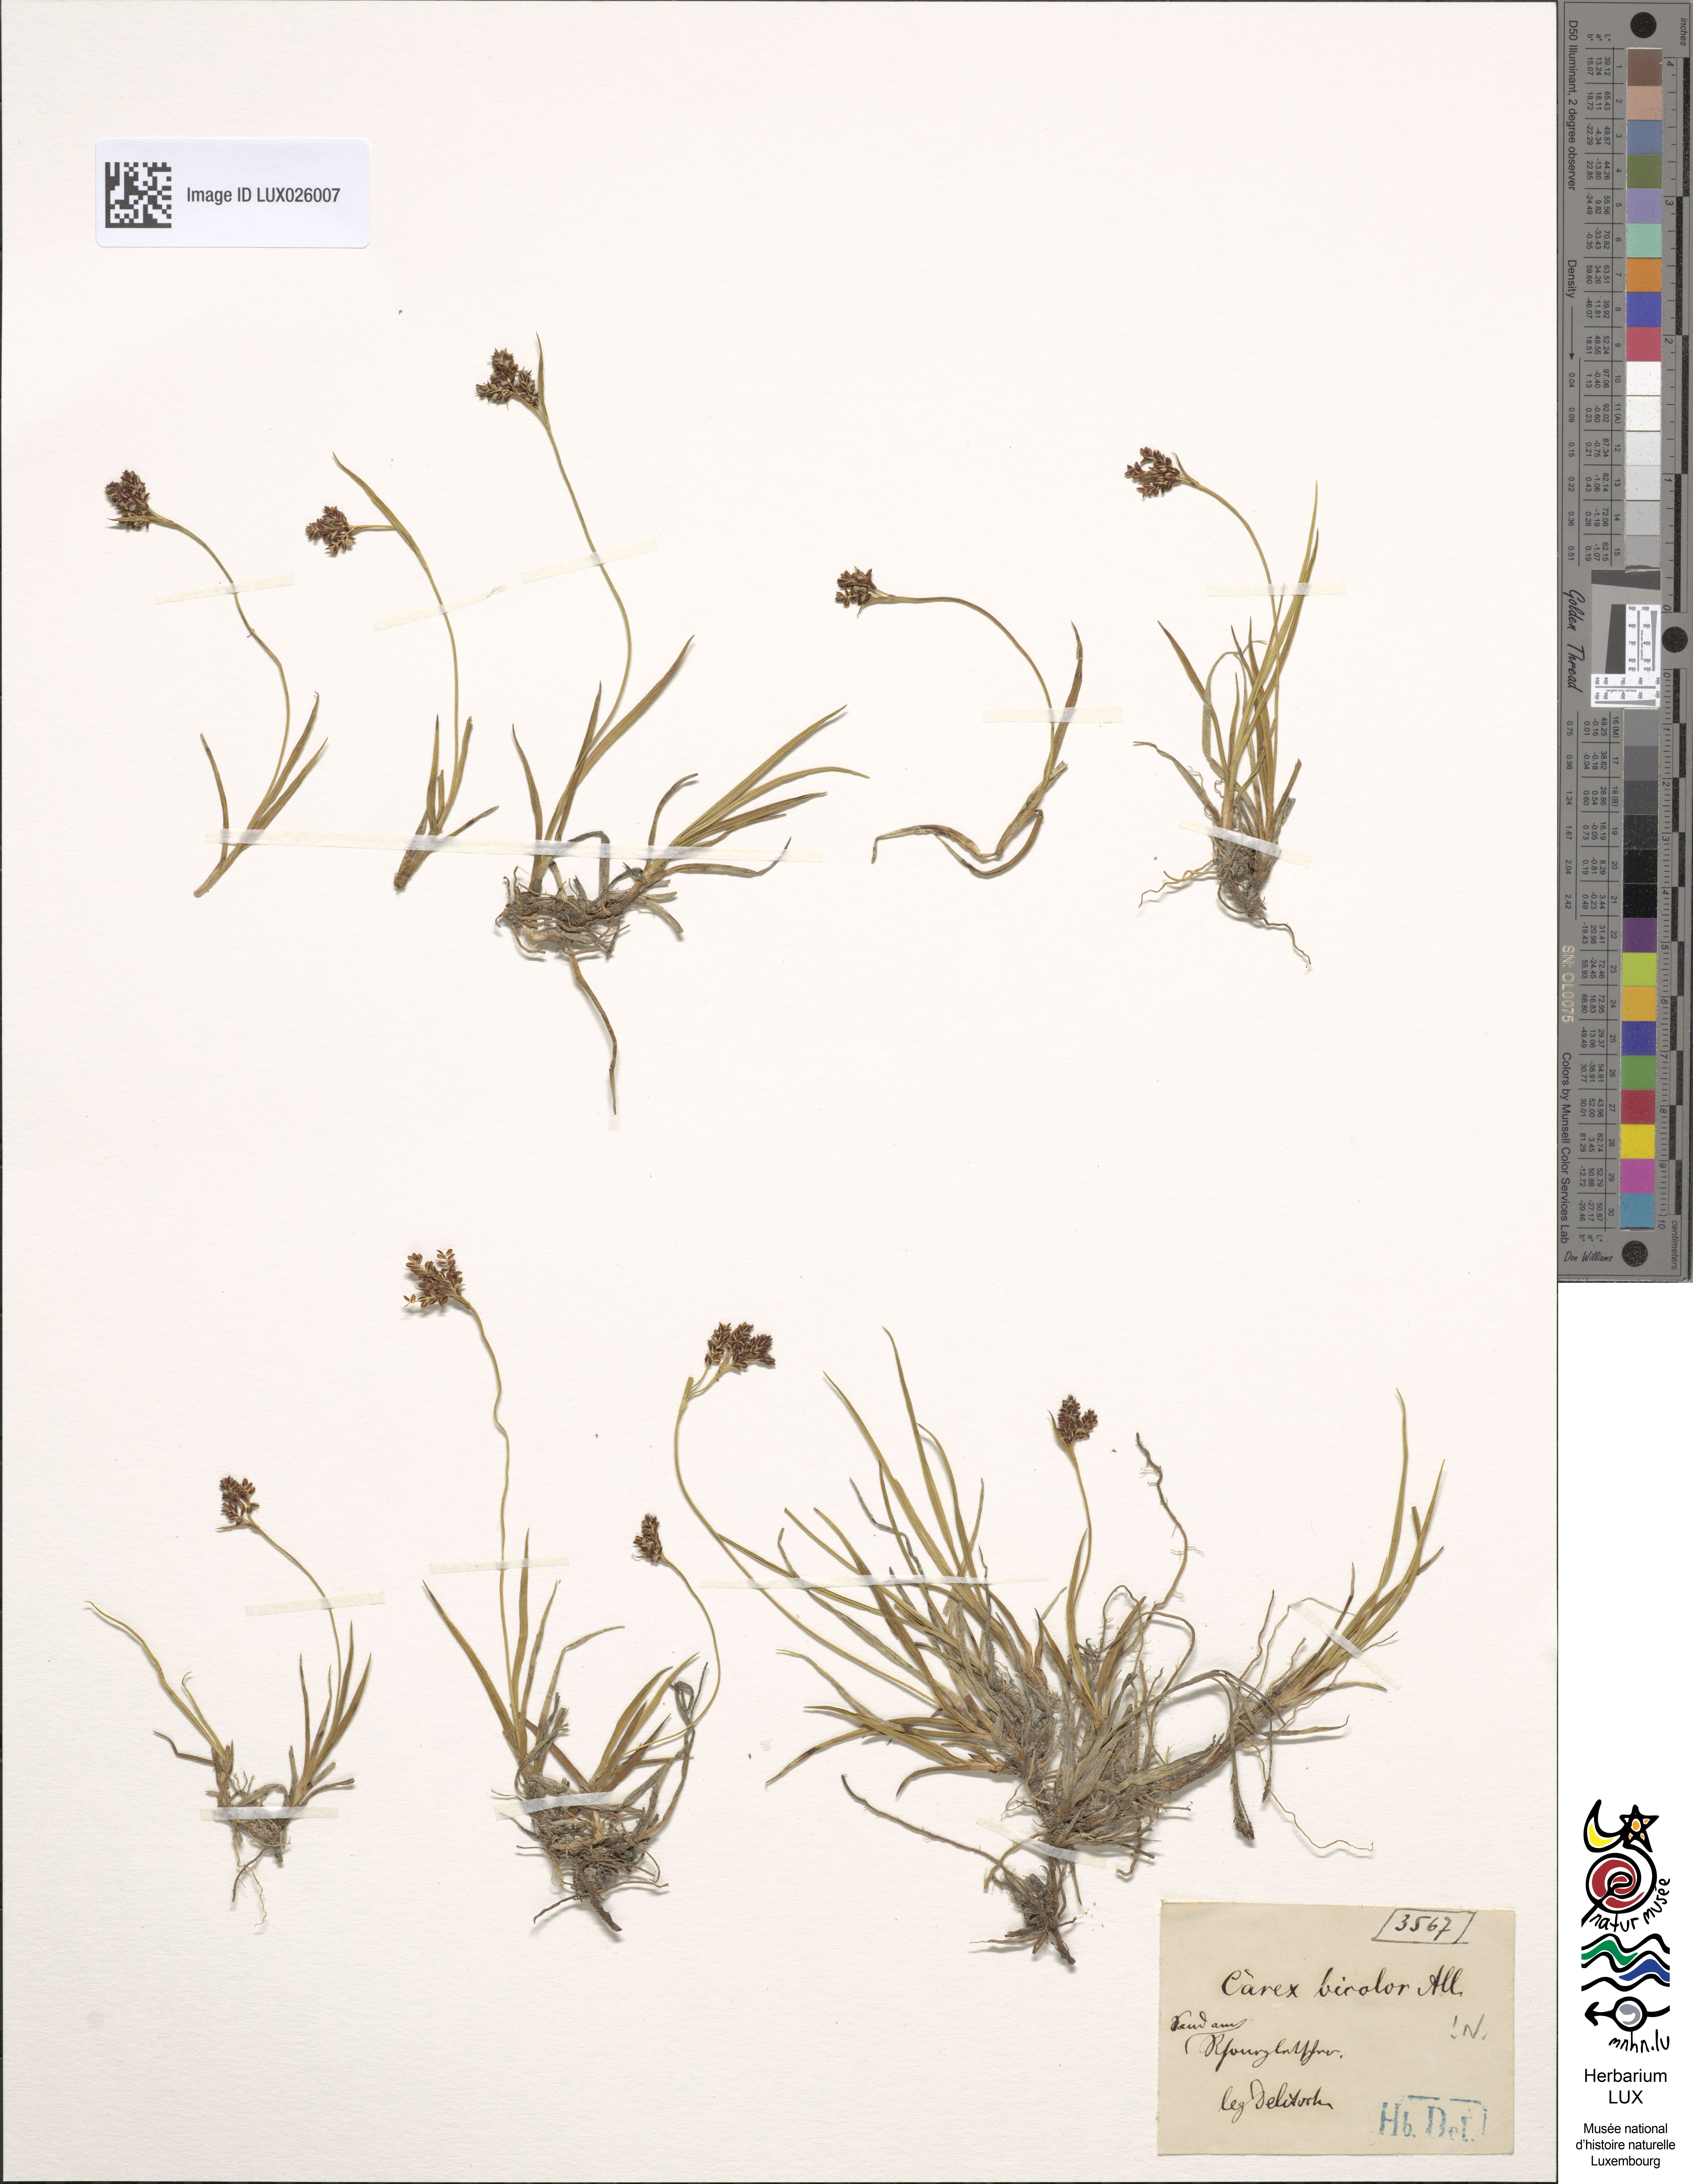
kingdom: Plantae
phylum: Tracheophyta
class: Liliopsida
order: Poales
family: Cyperaceae
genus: Carex
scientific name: Carex bicolor
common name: Bicoloured sedge
